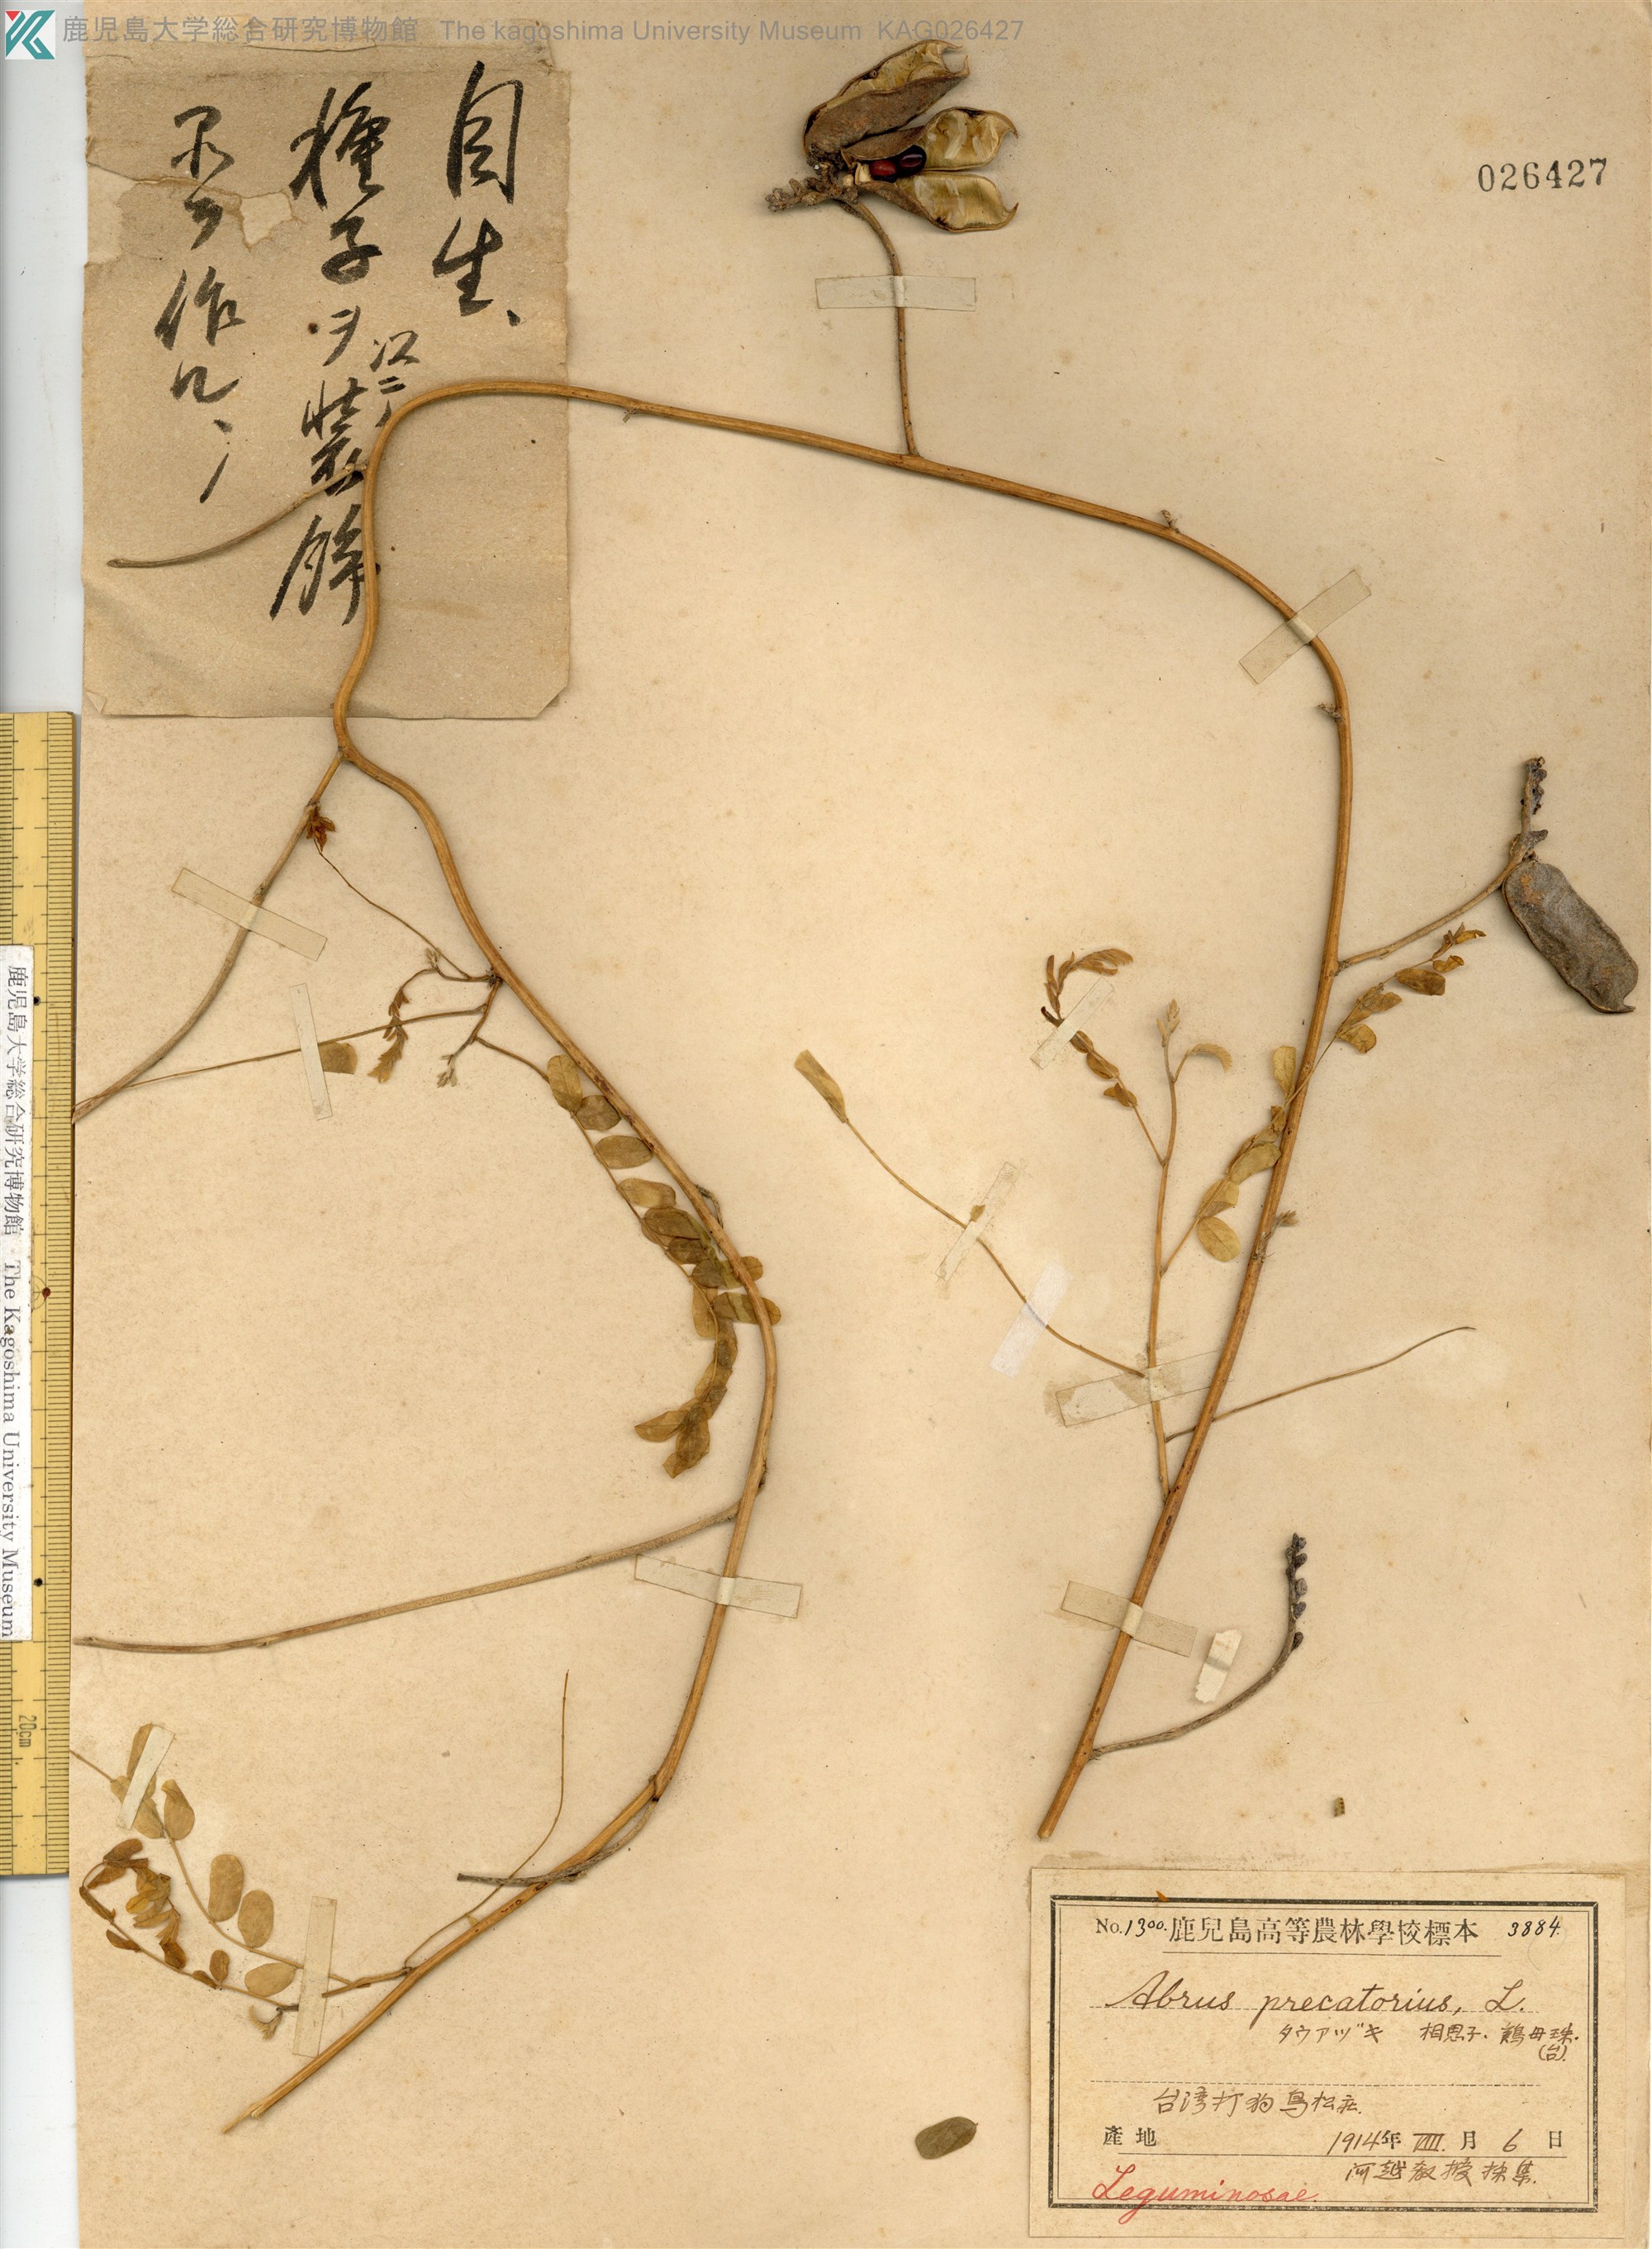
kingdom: Plantae
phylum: Tracheophyta
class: Magnoliopsida
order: Fabales
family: Fabaceae
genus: Abrus
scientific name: Abrus precatorius
